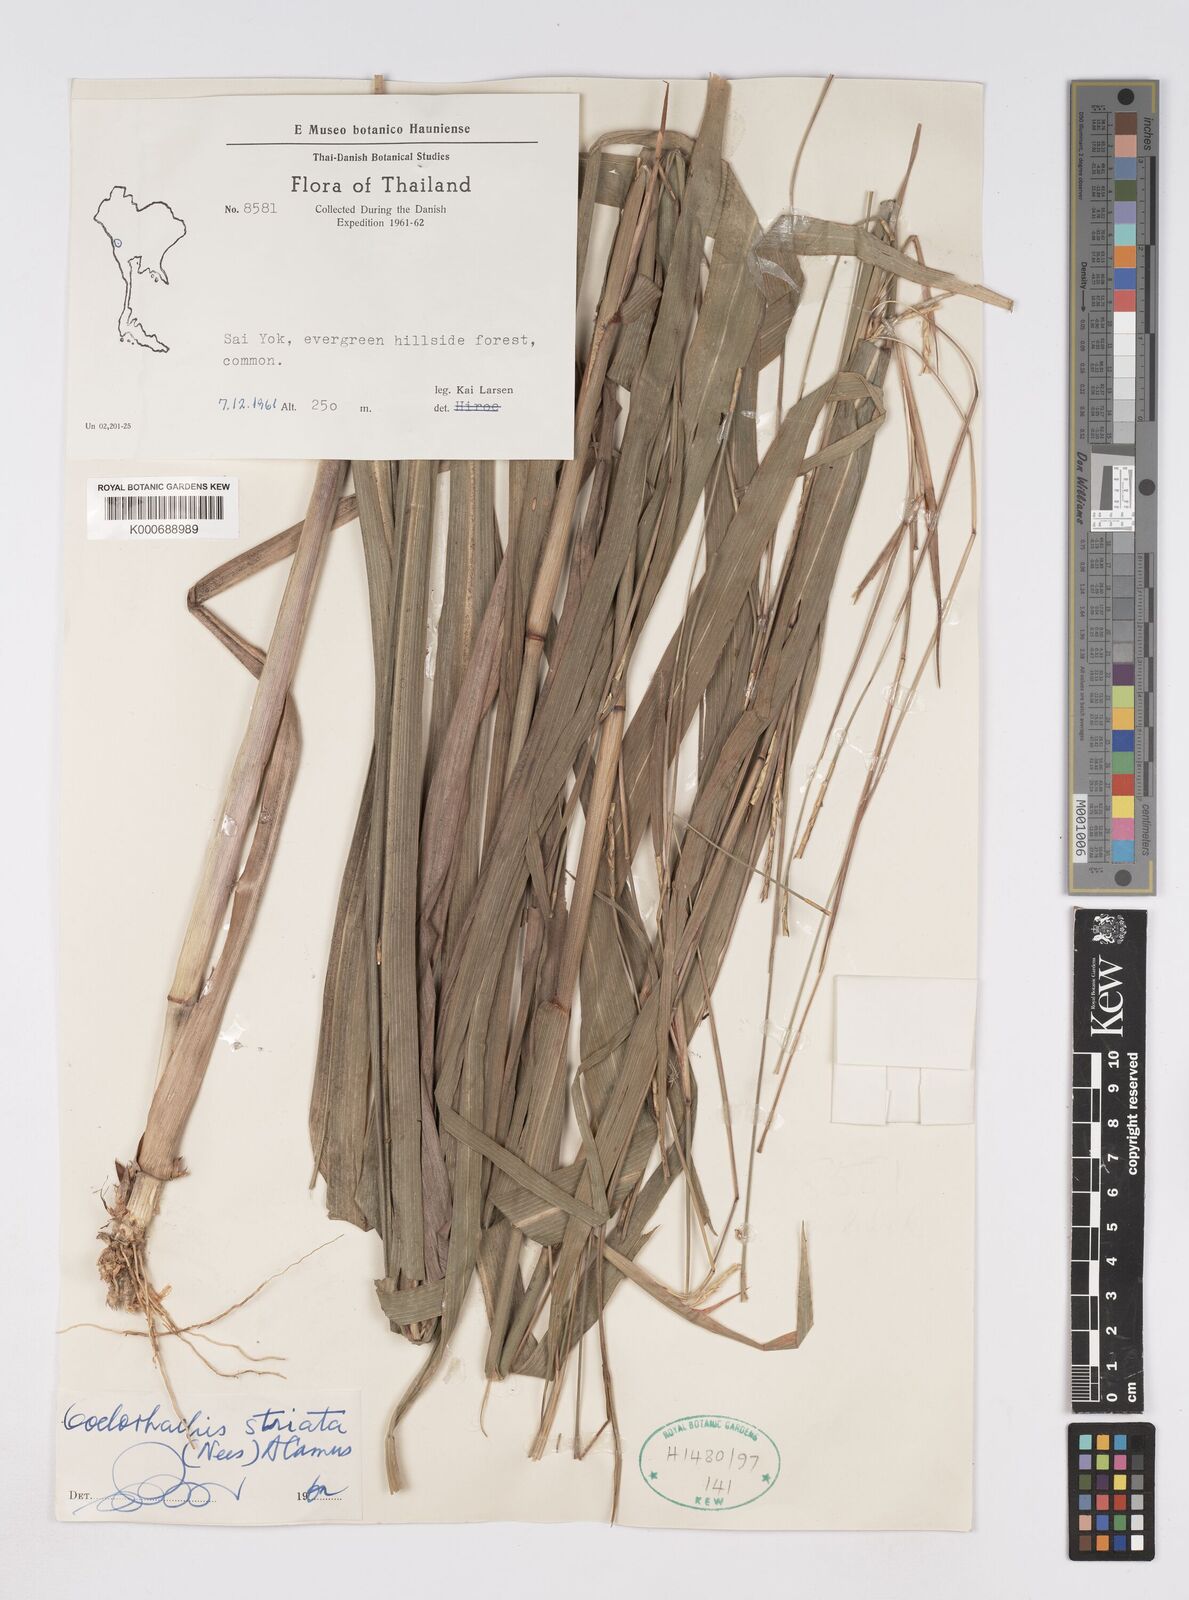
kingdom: Plantae
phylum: Tracheophyta
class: Liliopsida
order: Poales
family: Poaceae
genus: Rottboellia
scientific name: Rottboellia striata
